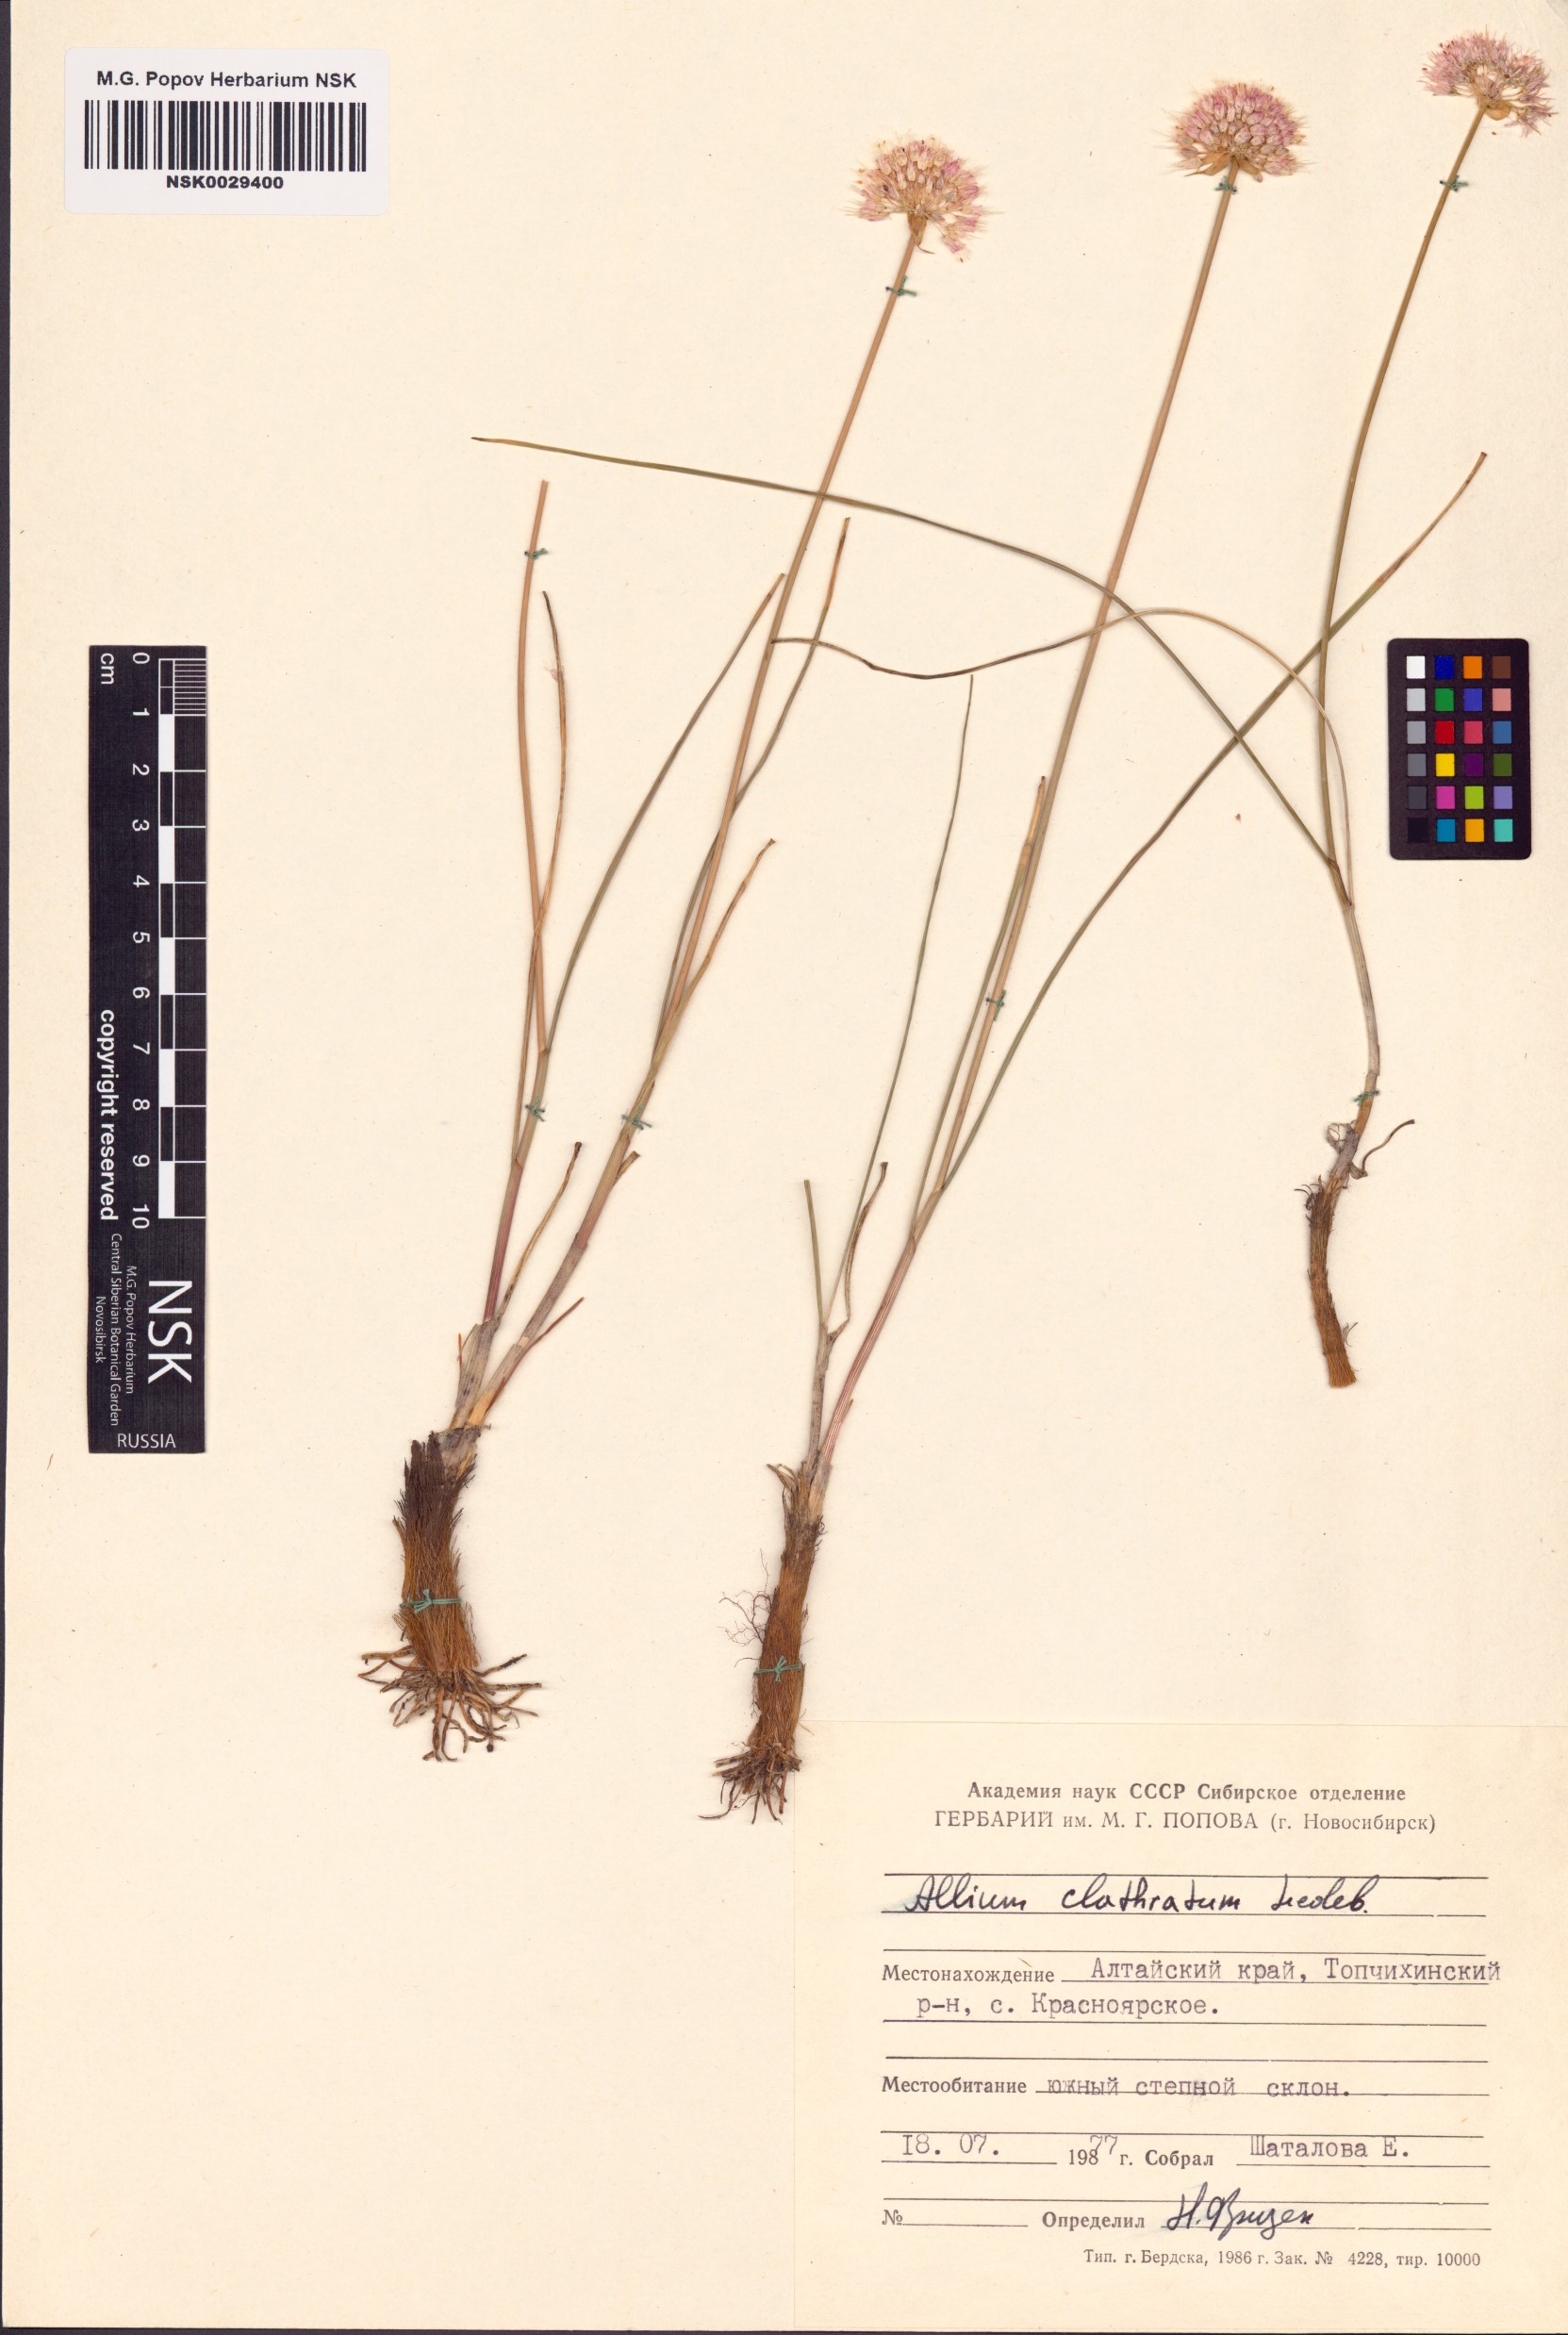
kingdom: Plantae
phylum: Tracheophyta
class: Liliopsida
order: Asparagales
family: Amaryllidaceae
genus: Allium
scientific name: Allium clathratum
